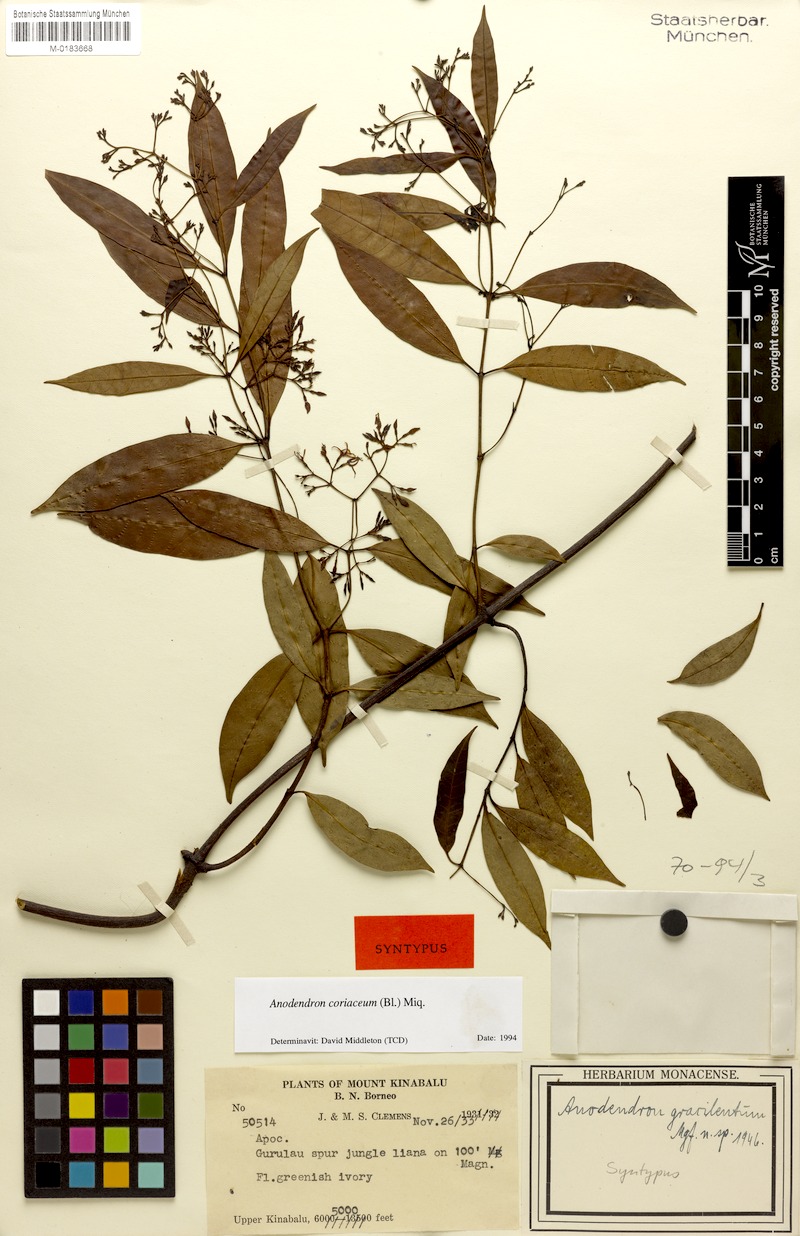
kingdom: Plantae
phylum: Tracheophyta
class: Magnoliopsida
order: Gentianales
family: Apocynaceae
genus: Anodendron
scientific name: Anodendron coriaceum
